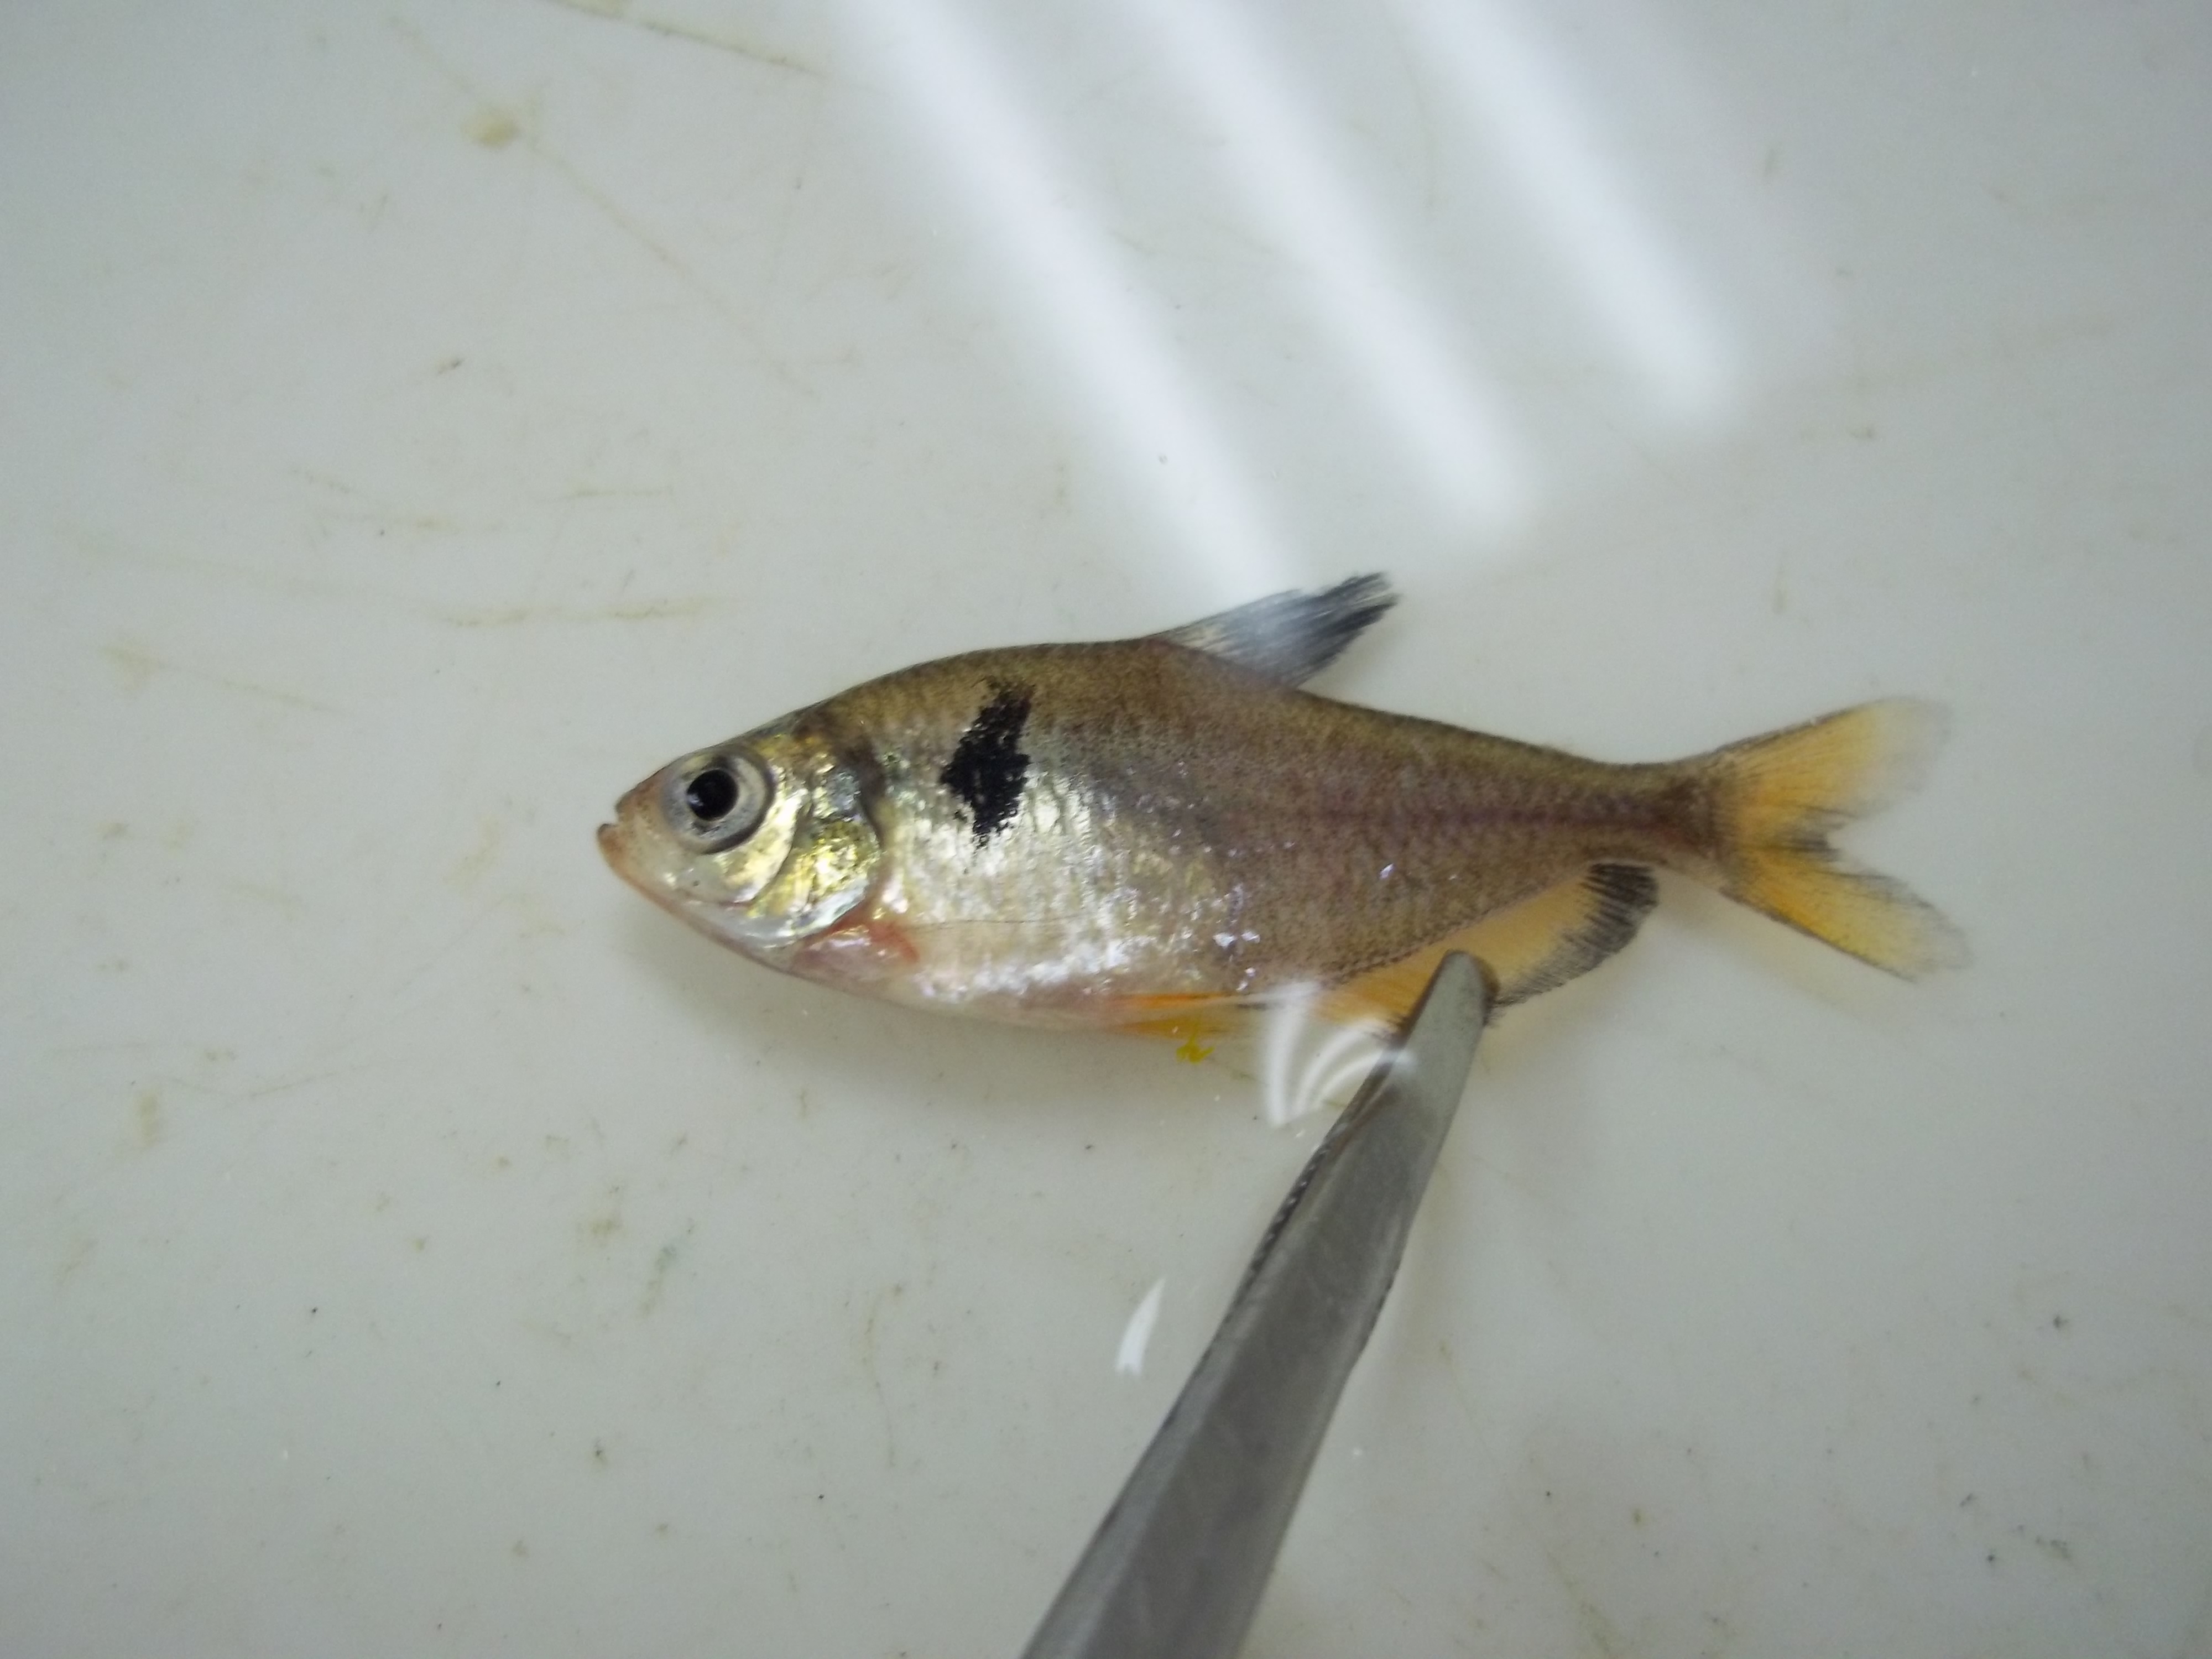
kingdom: Animalia
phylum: Chordata
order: Characiformes
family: Characidae
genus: Hyphessobrycon
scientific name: Hyphessobrycon eques
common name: Blood characin
